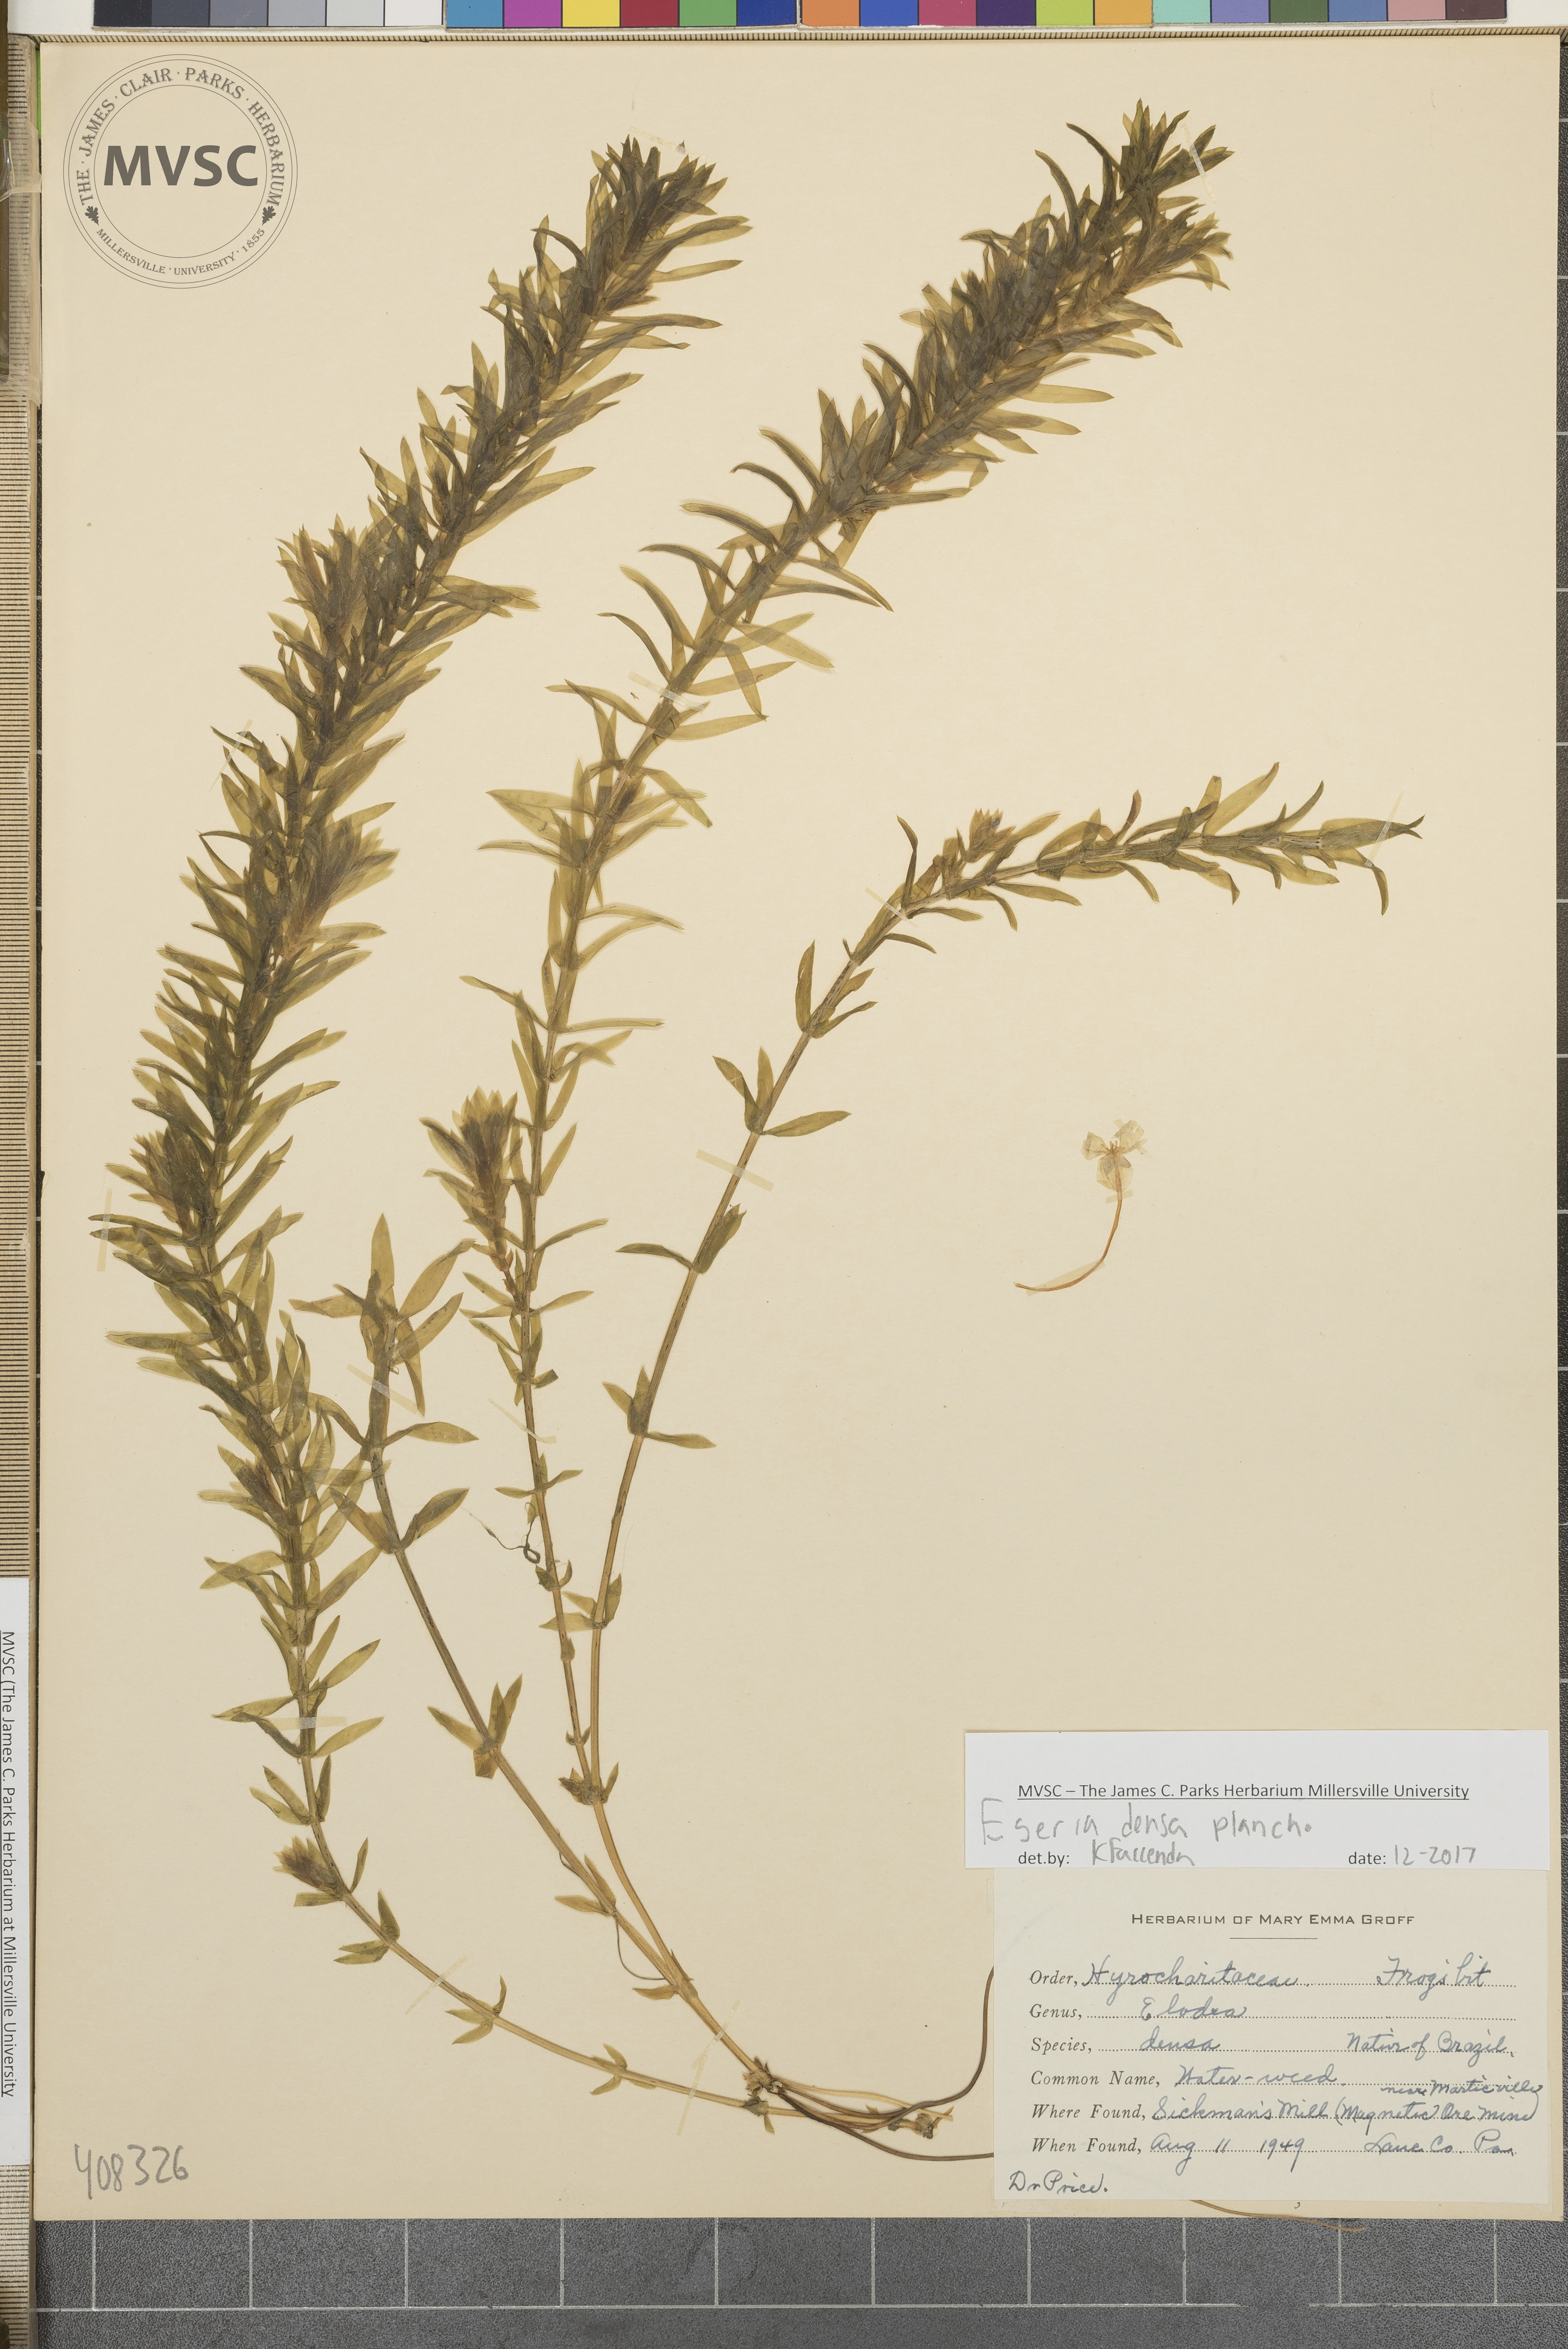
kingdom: Plantae
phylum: Tracheophyta
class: Liliopsida
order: Alismatales
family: Hydrocharitaceae
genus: Elodea
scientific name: Elodea densa
